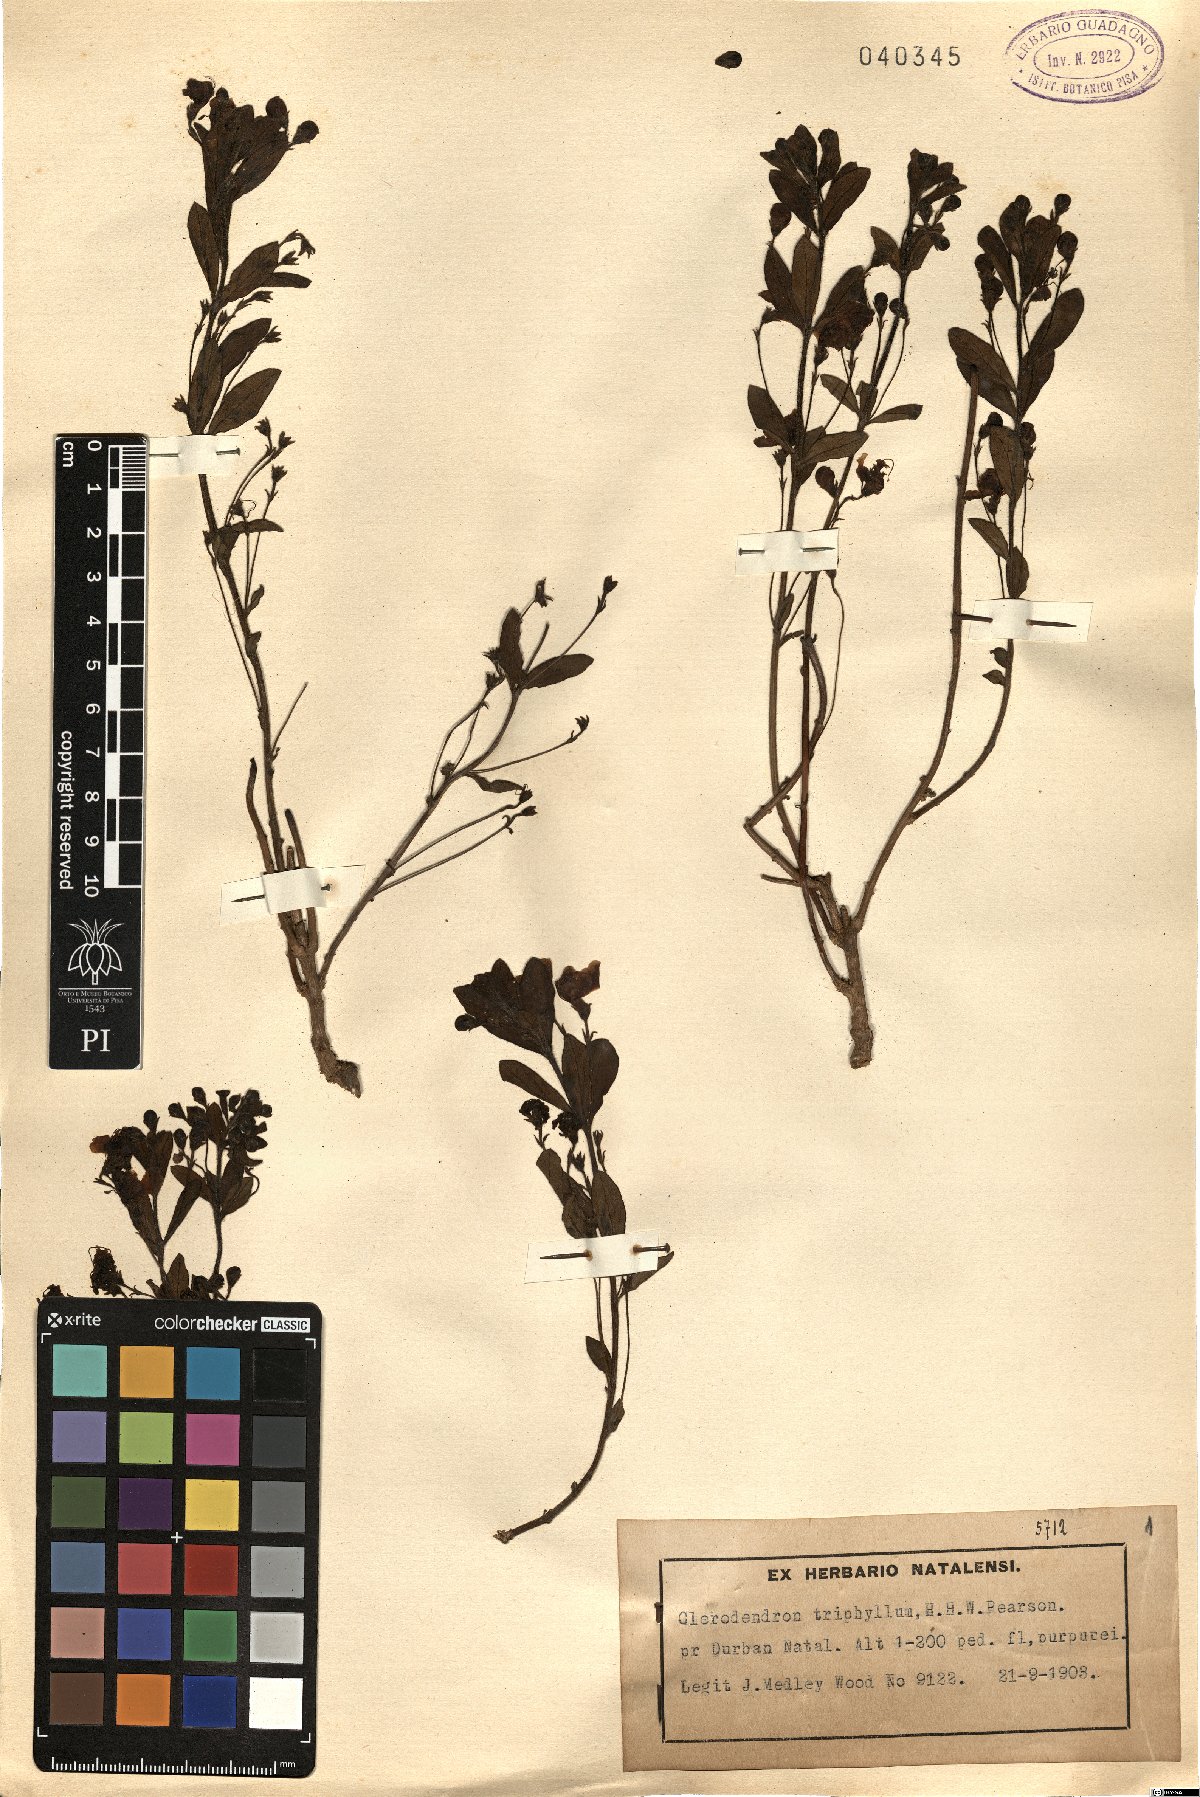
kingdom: Plantae
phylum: Tracheophyta
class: Magnoliopsida
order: Lamiales
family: Lamiaceae
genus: Rotheca
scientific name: Rotheca hirsuta
